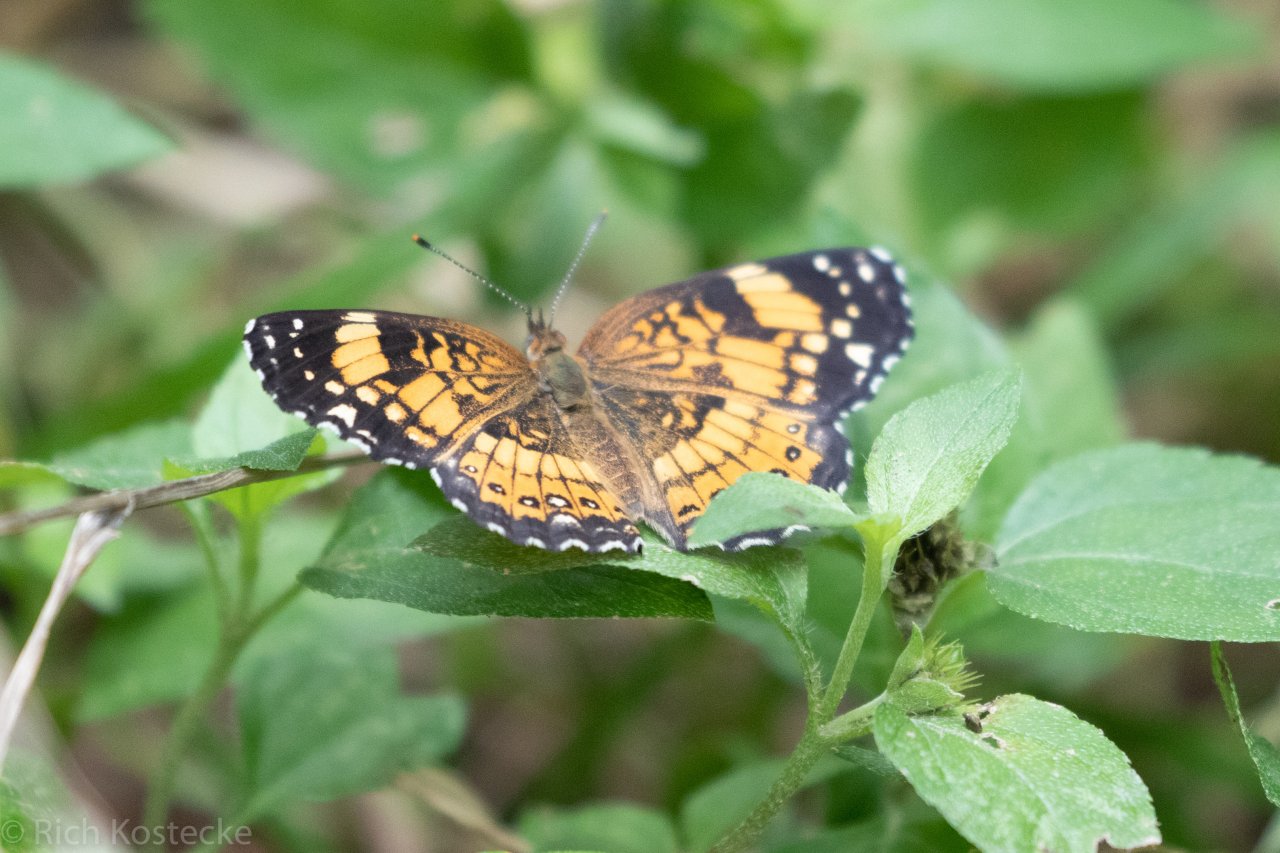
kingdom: Animalia
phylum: Arthropoda
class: Insecta
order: Lepidoptera
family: Nymphalidae
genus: Chlosyne
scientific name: Chlosyne nycteis
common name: Silvery Checkerspot
